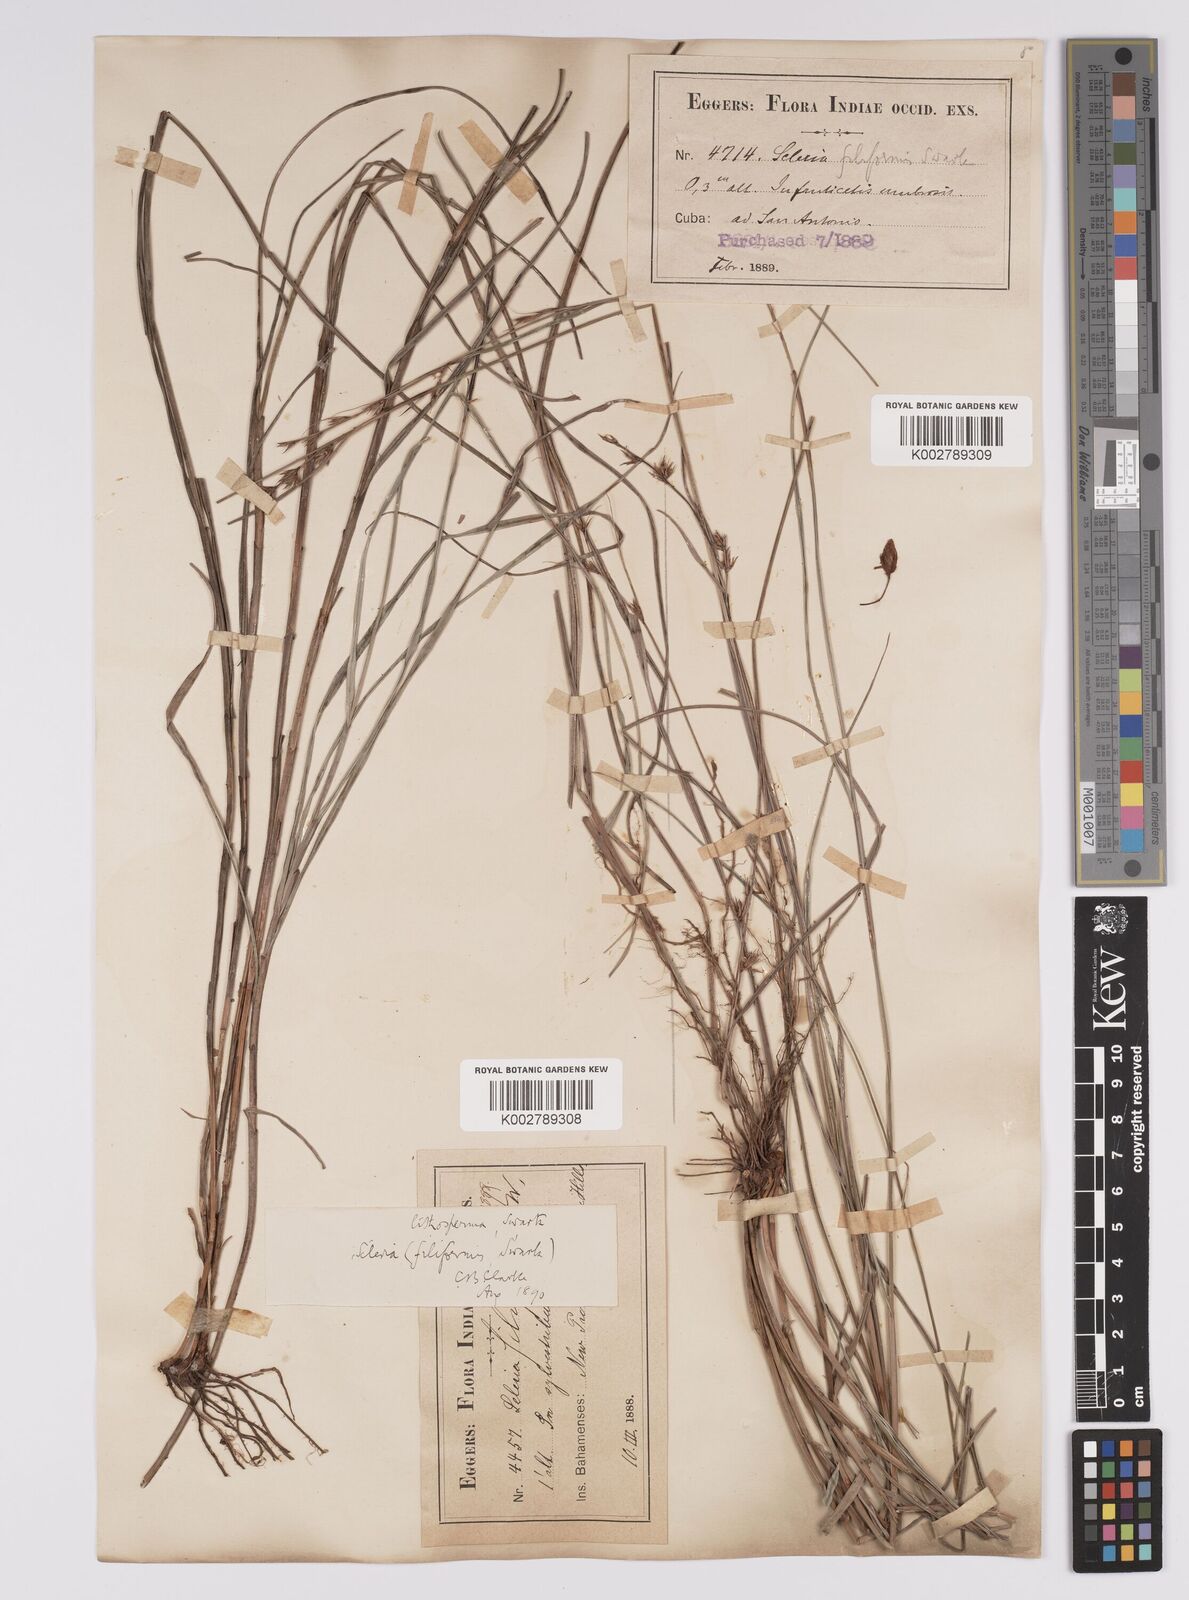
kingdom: Plantae
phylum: Tracheophyta
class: Liliopsida
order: Poales
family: Cyperaceae
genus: Scleria
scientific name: Scleria lithosperma
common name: Florida keys nut-rush
